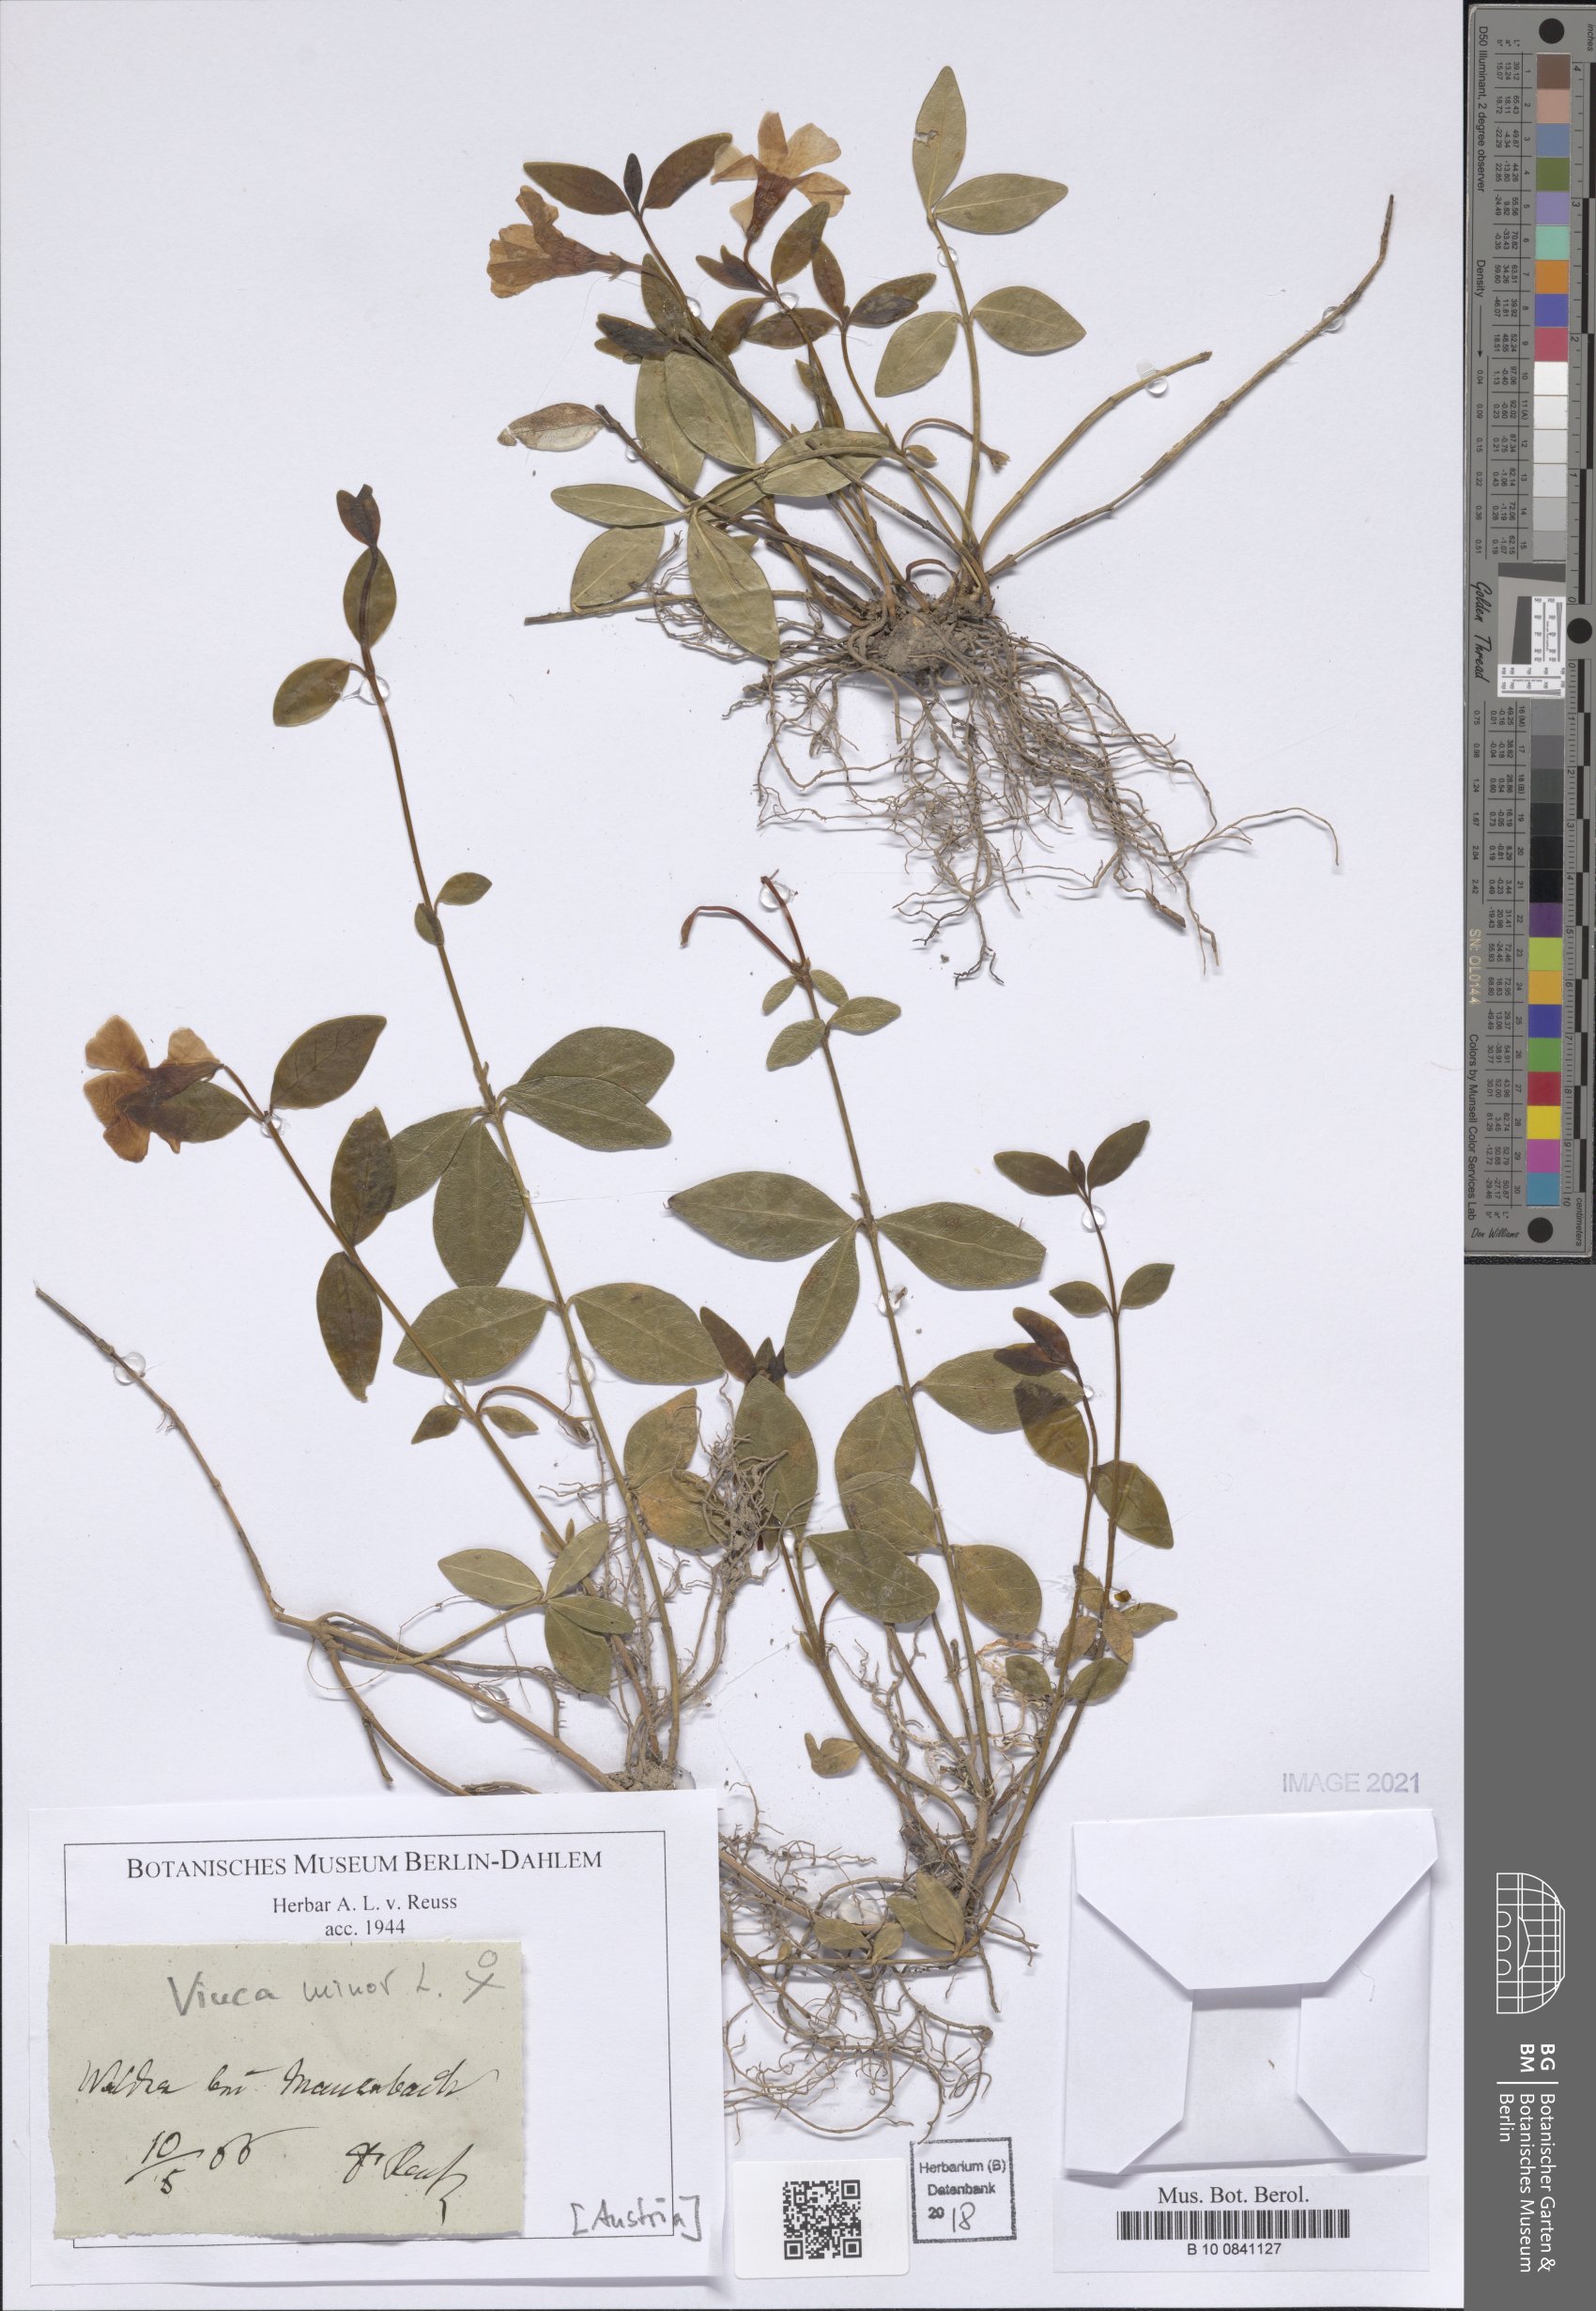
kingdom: Plantae
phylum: Tracheophyta
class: Magnoliopsida
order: Gentianales
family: Apocynaceae
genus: Vinca
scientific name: Vinca minor
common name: Lesser periwinkle
